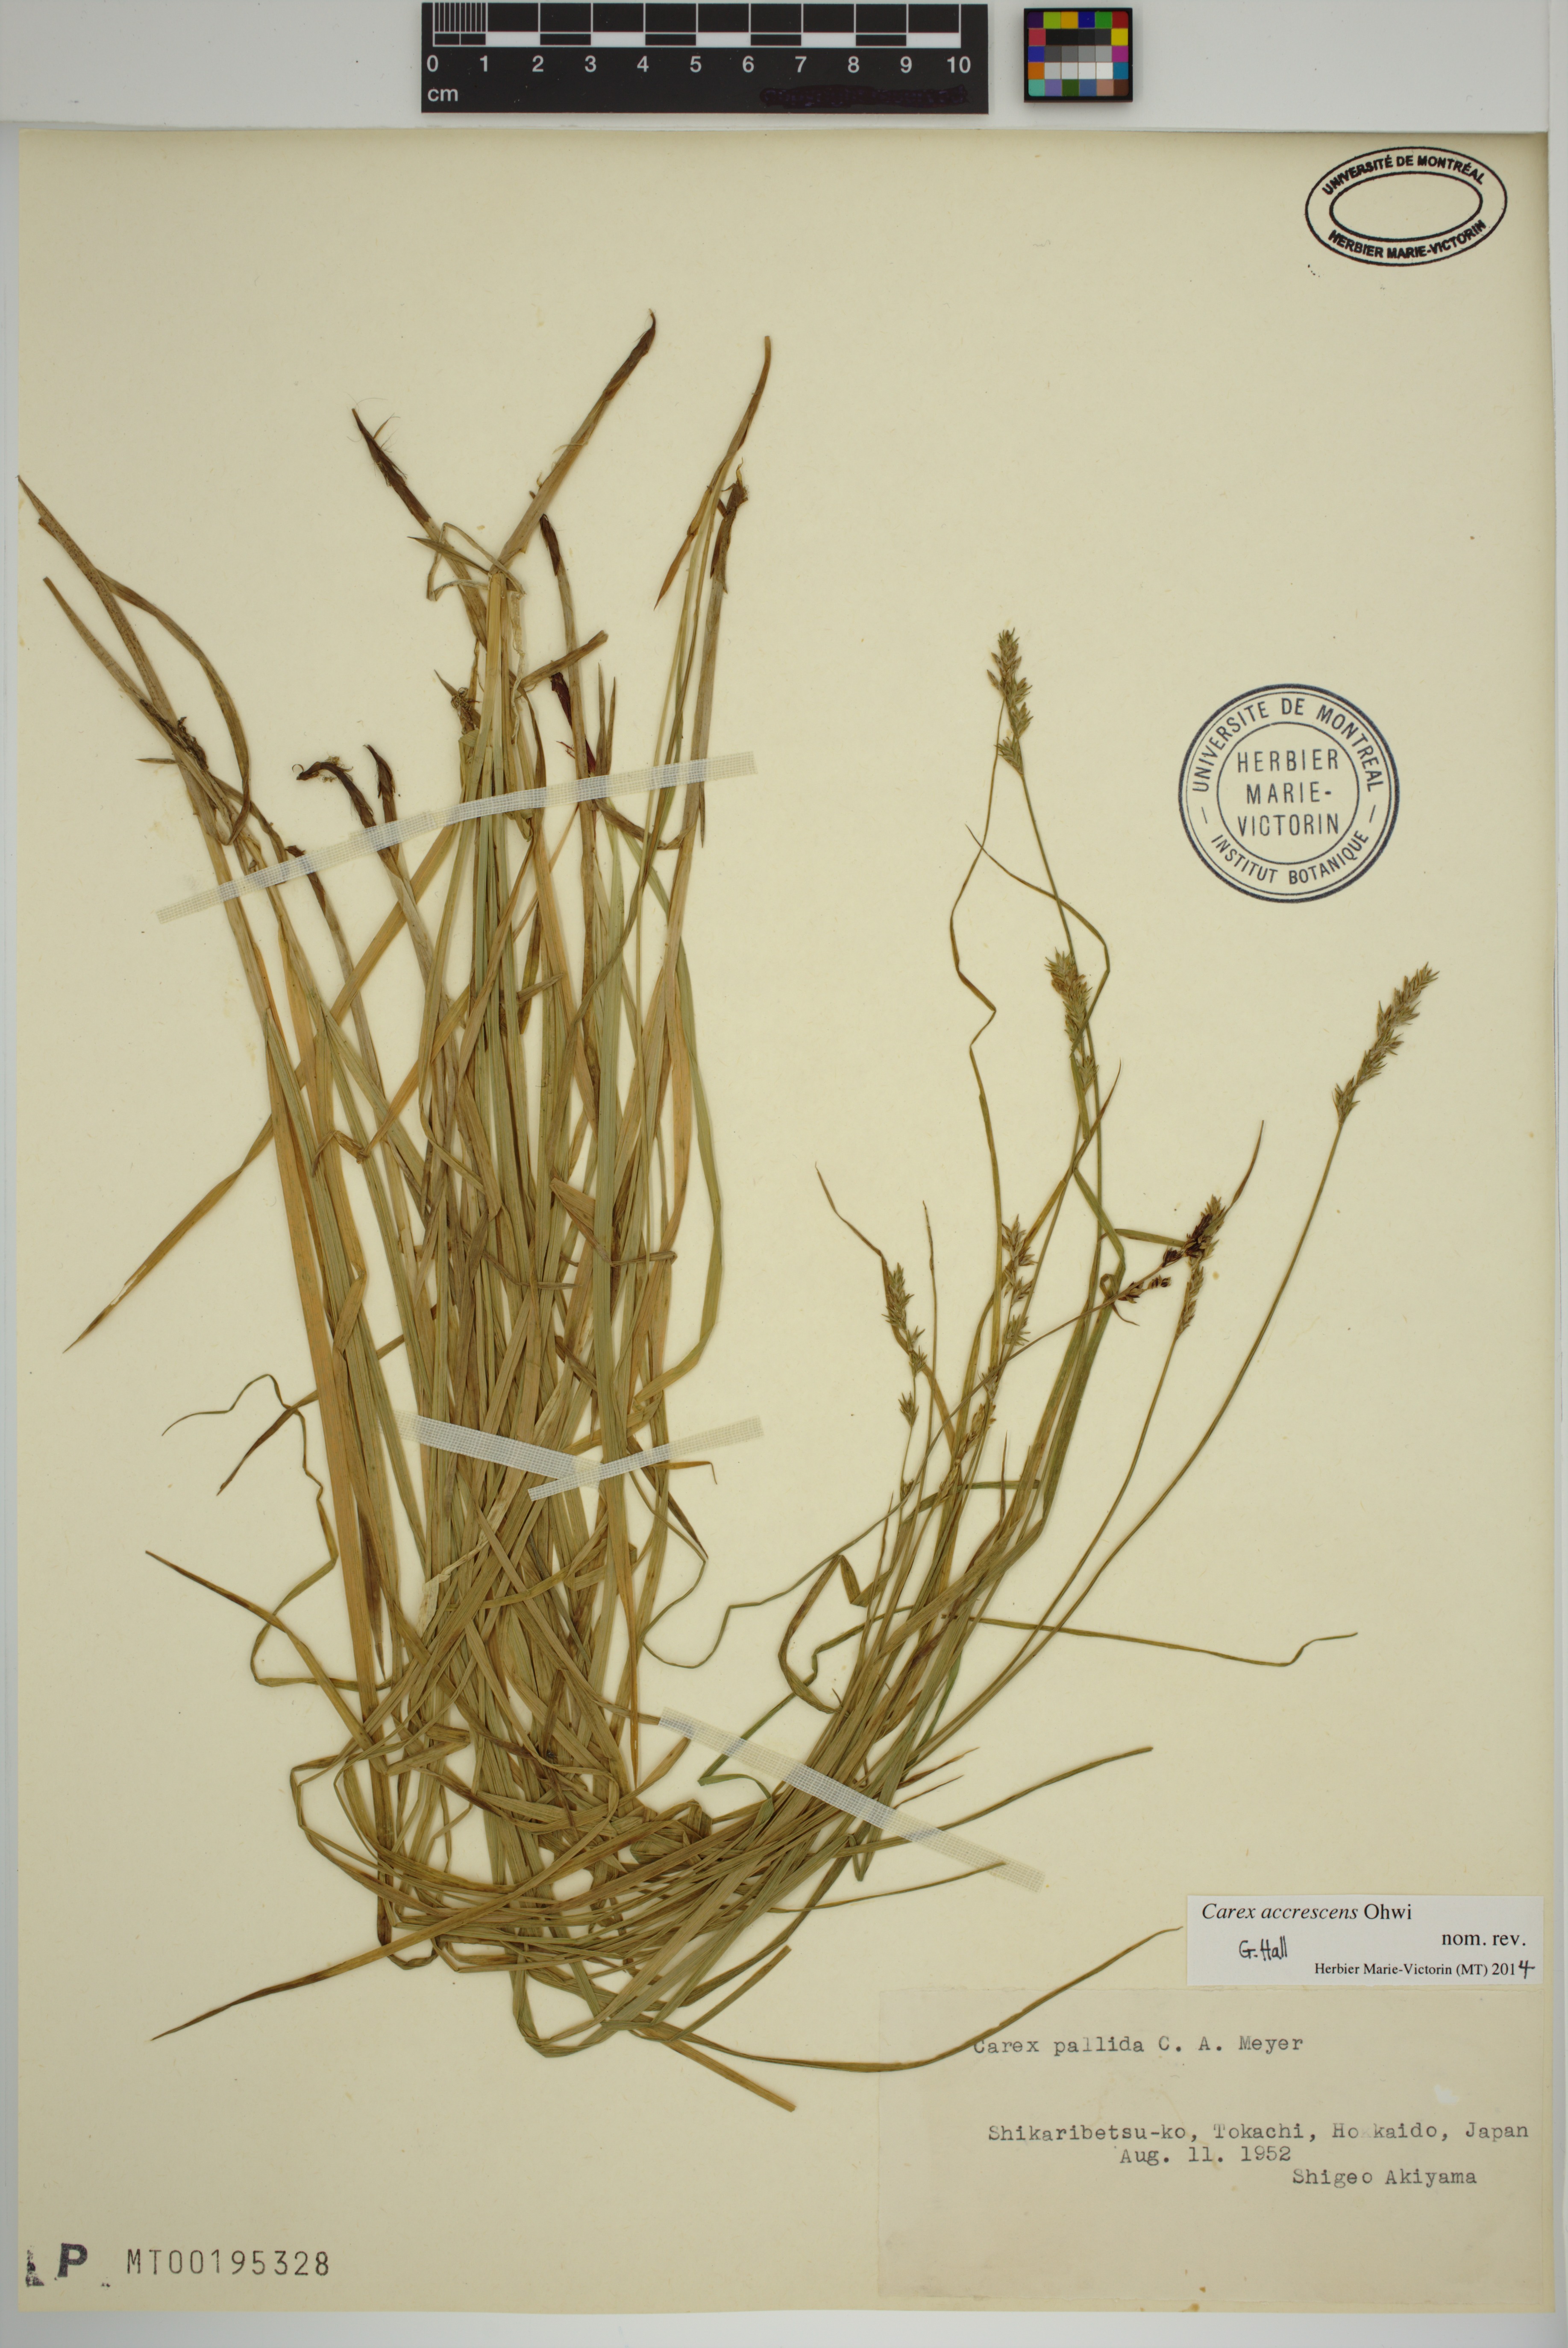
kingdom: Plantae
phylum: Tracheophyta
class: Liliopsida
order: Poales
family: Cyperaceae
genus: Carex
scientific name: Carex accrescens
